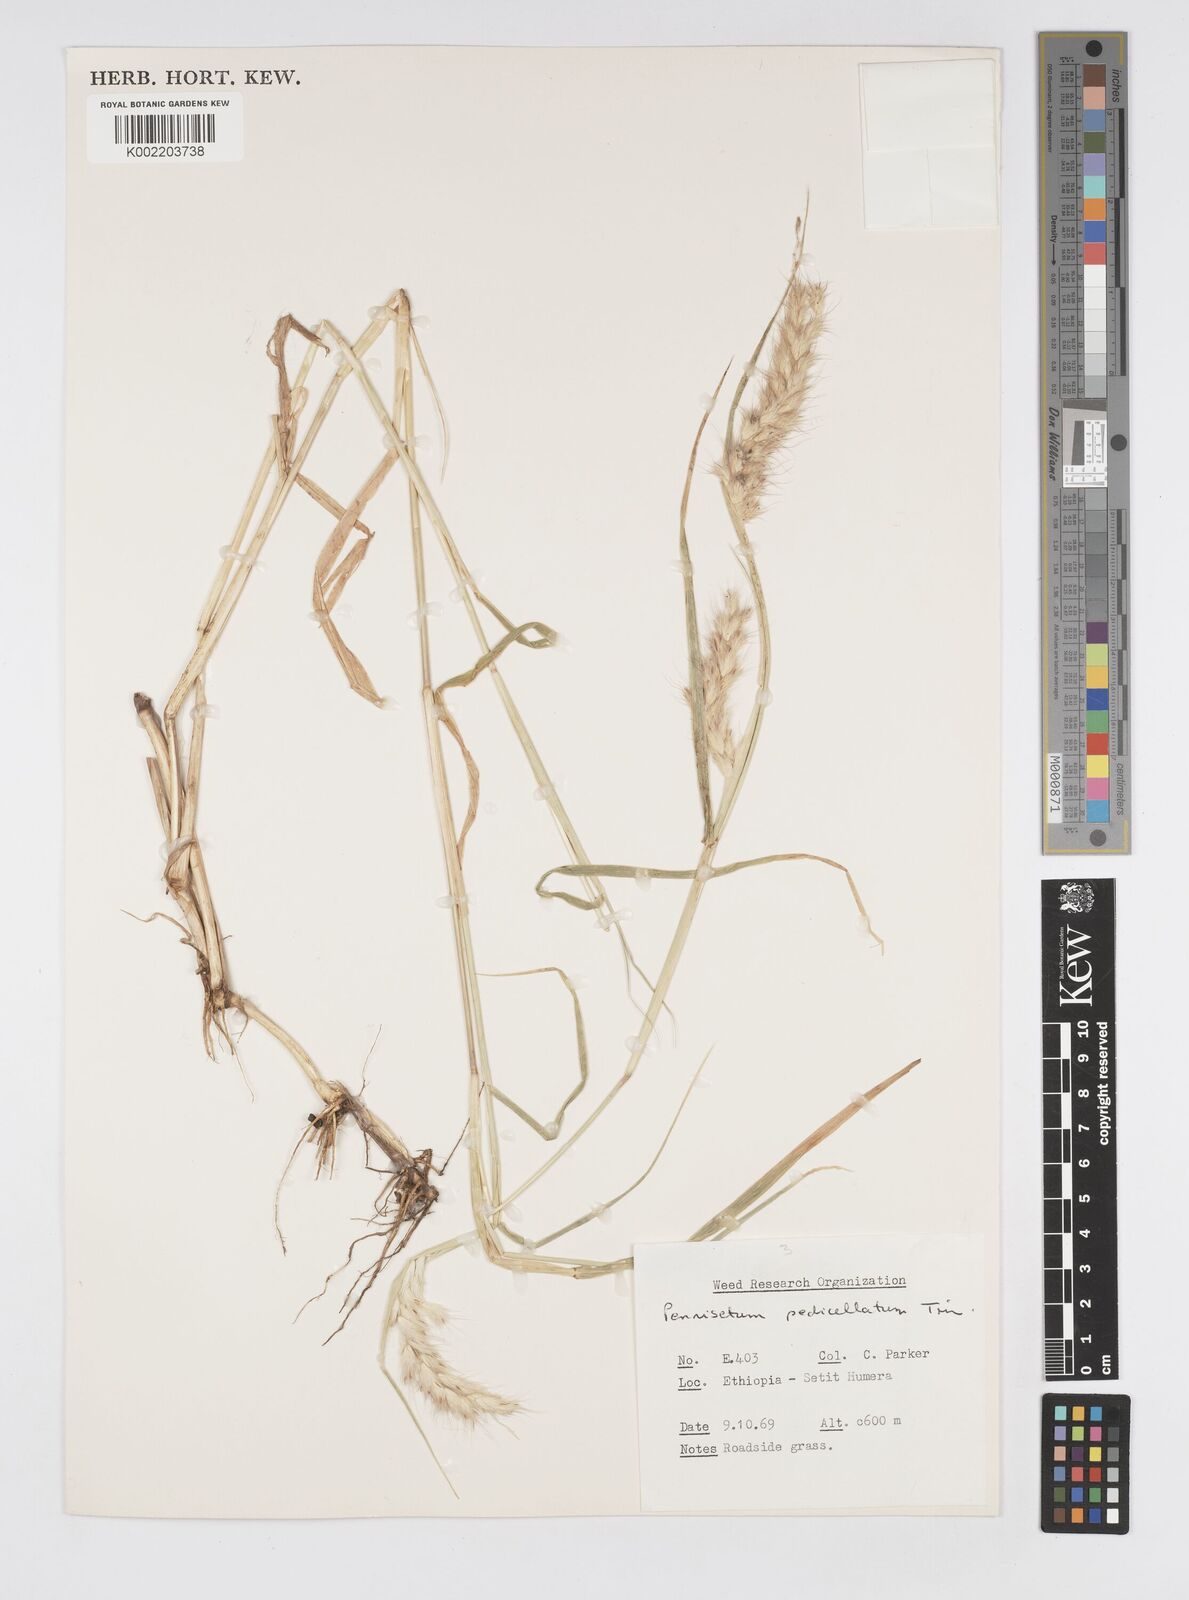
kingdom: Plantae
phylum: Tracheophyta
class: Liliopsida
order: Poales
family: Poaceae
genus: Cenchrus
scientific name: Cenchrus pedicellatus
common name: Hairy fountain grass
